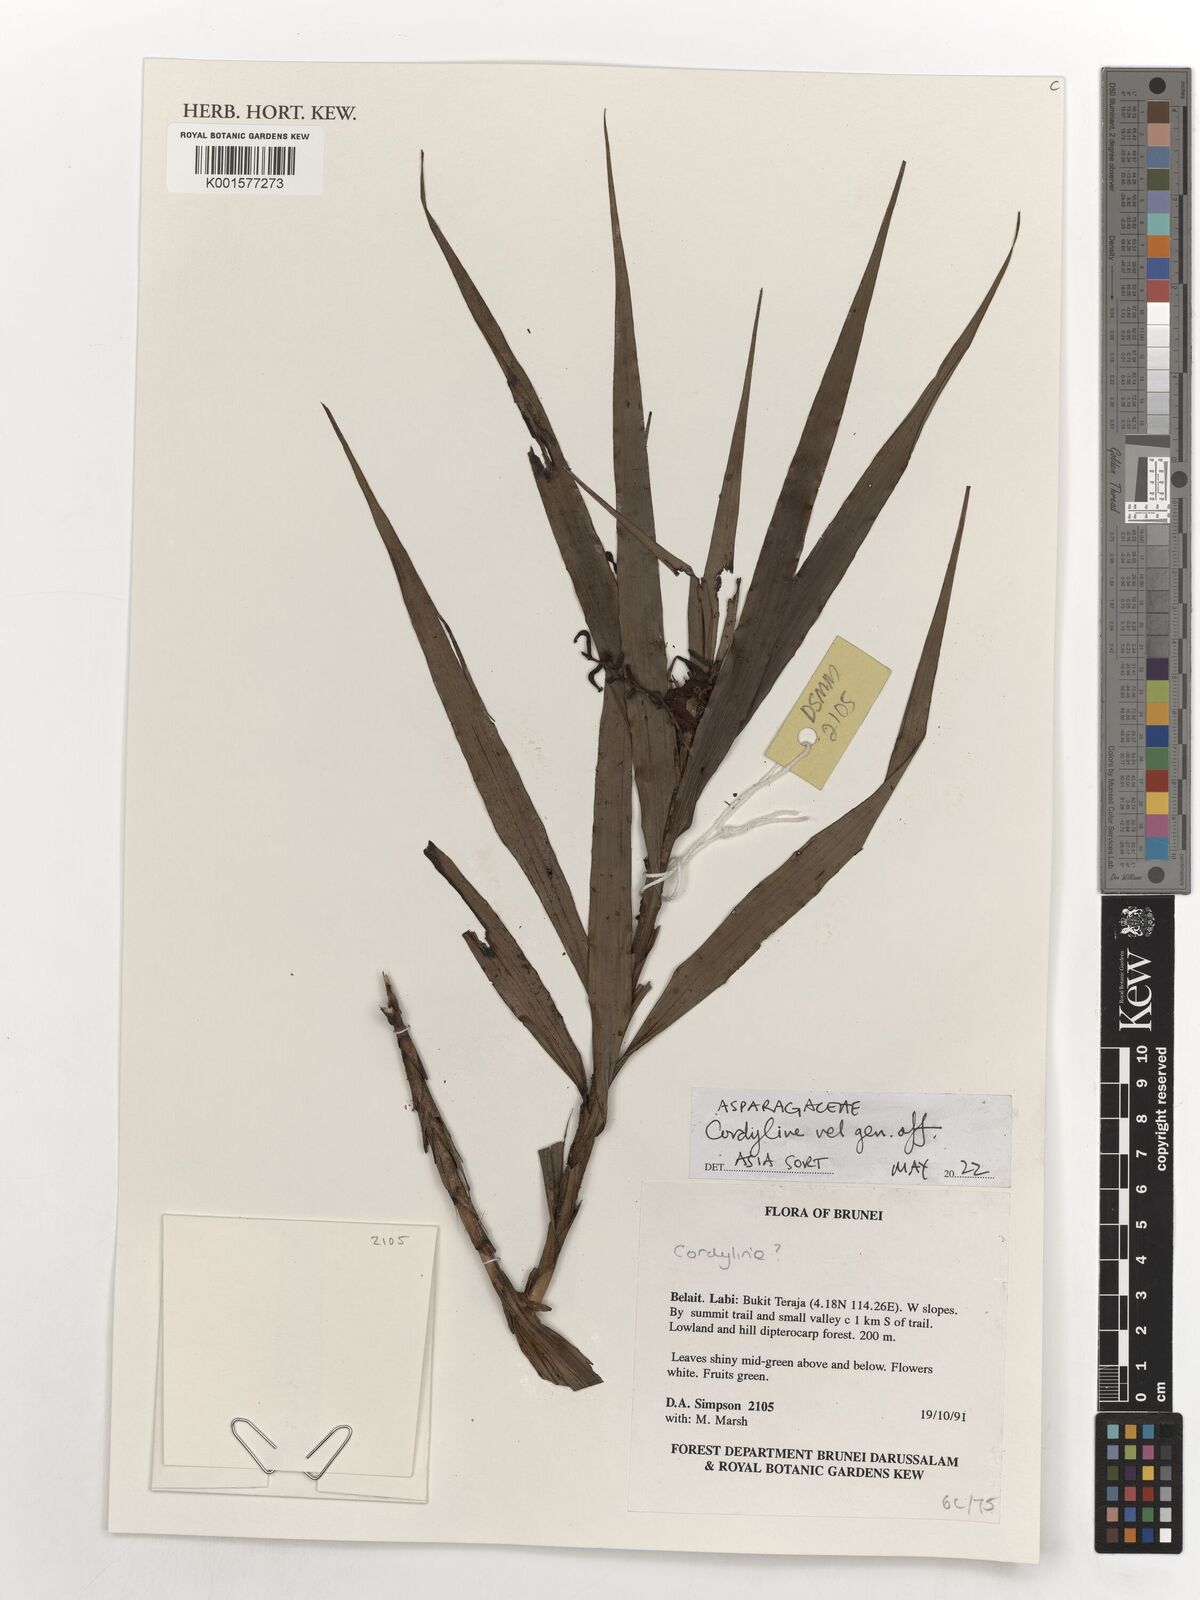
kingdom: Plantae
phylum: Tracheophyta
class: Liliopsida
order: Asparagales
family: Asparagaceae
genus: Cordyline
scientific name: Cordyline
